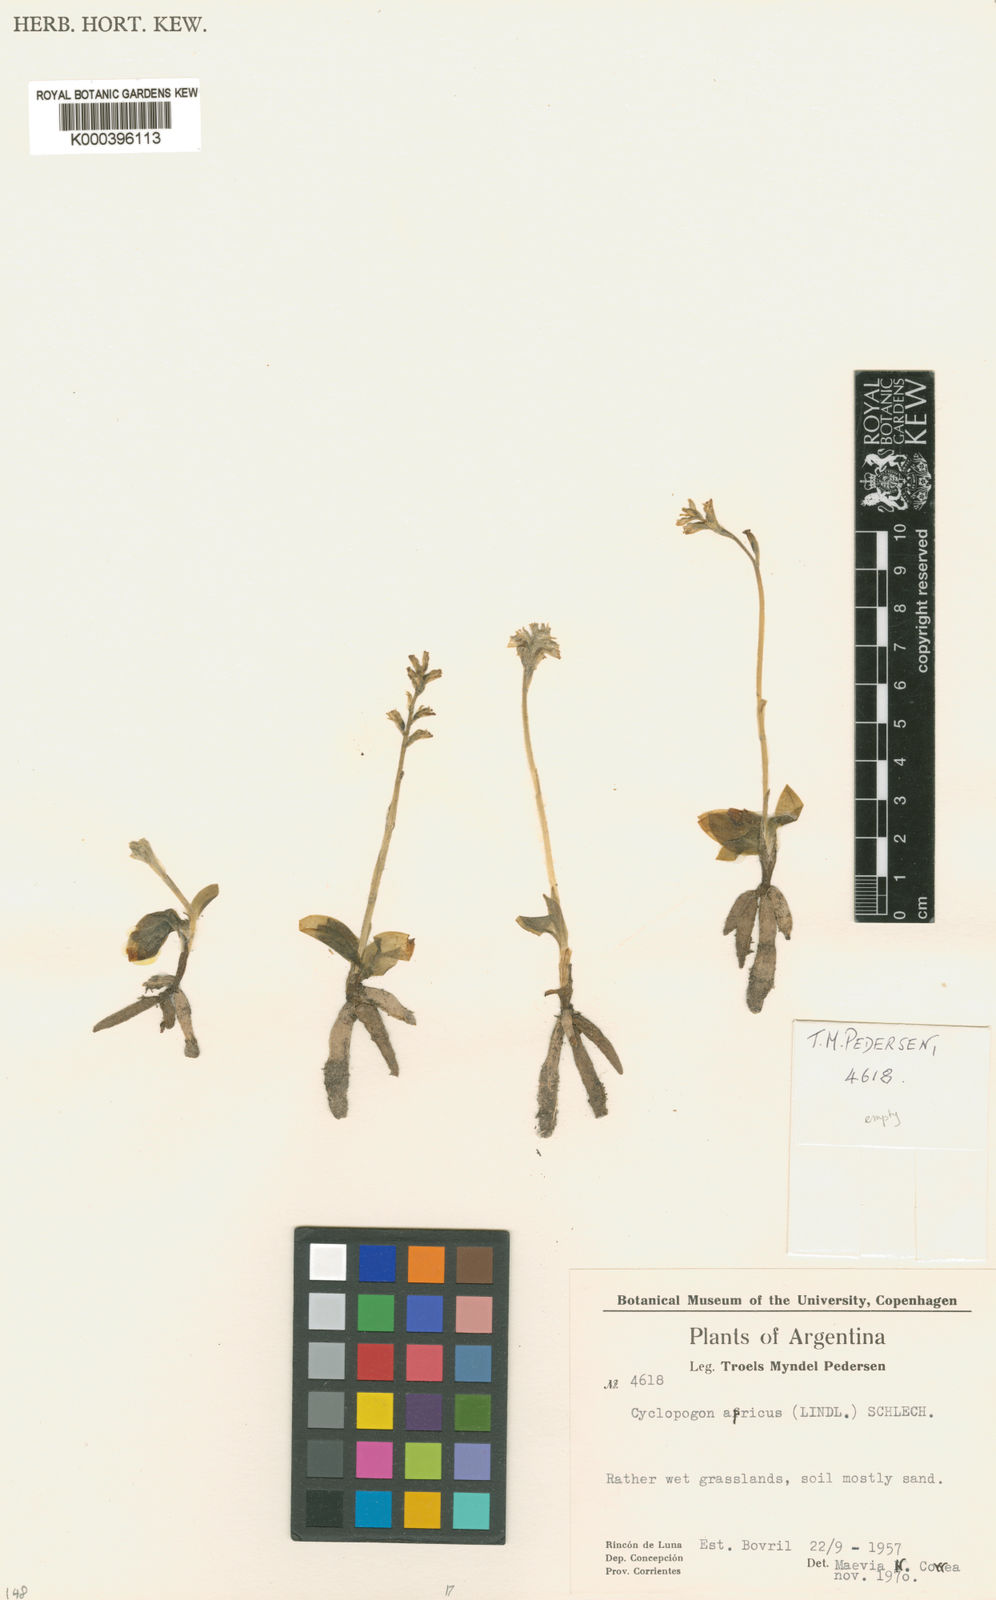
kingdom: Plantae
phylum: Tracheophyta
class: Liliopsida
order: Asparagales
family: Orchidaceae
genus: Cyclopogon
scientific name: Cyclopogon apricus
